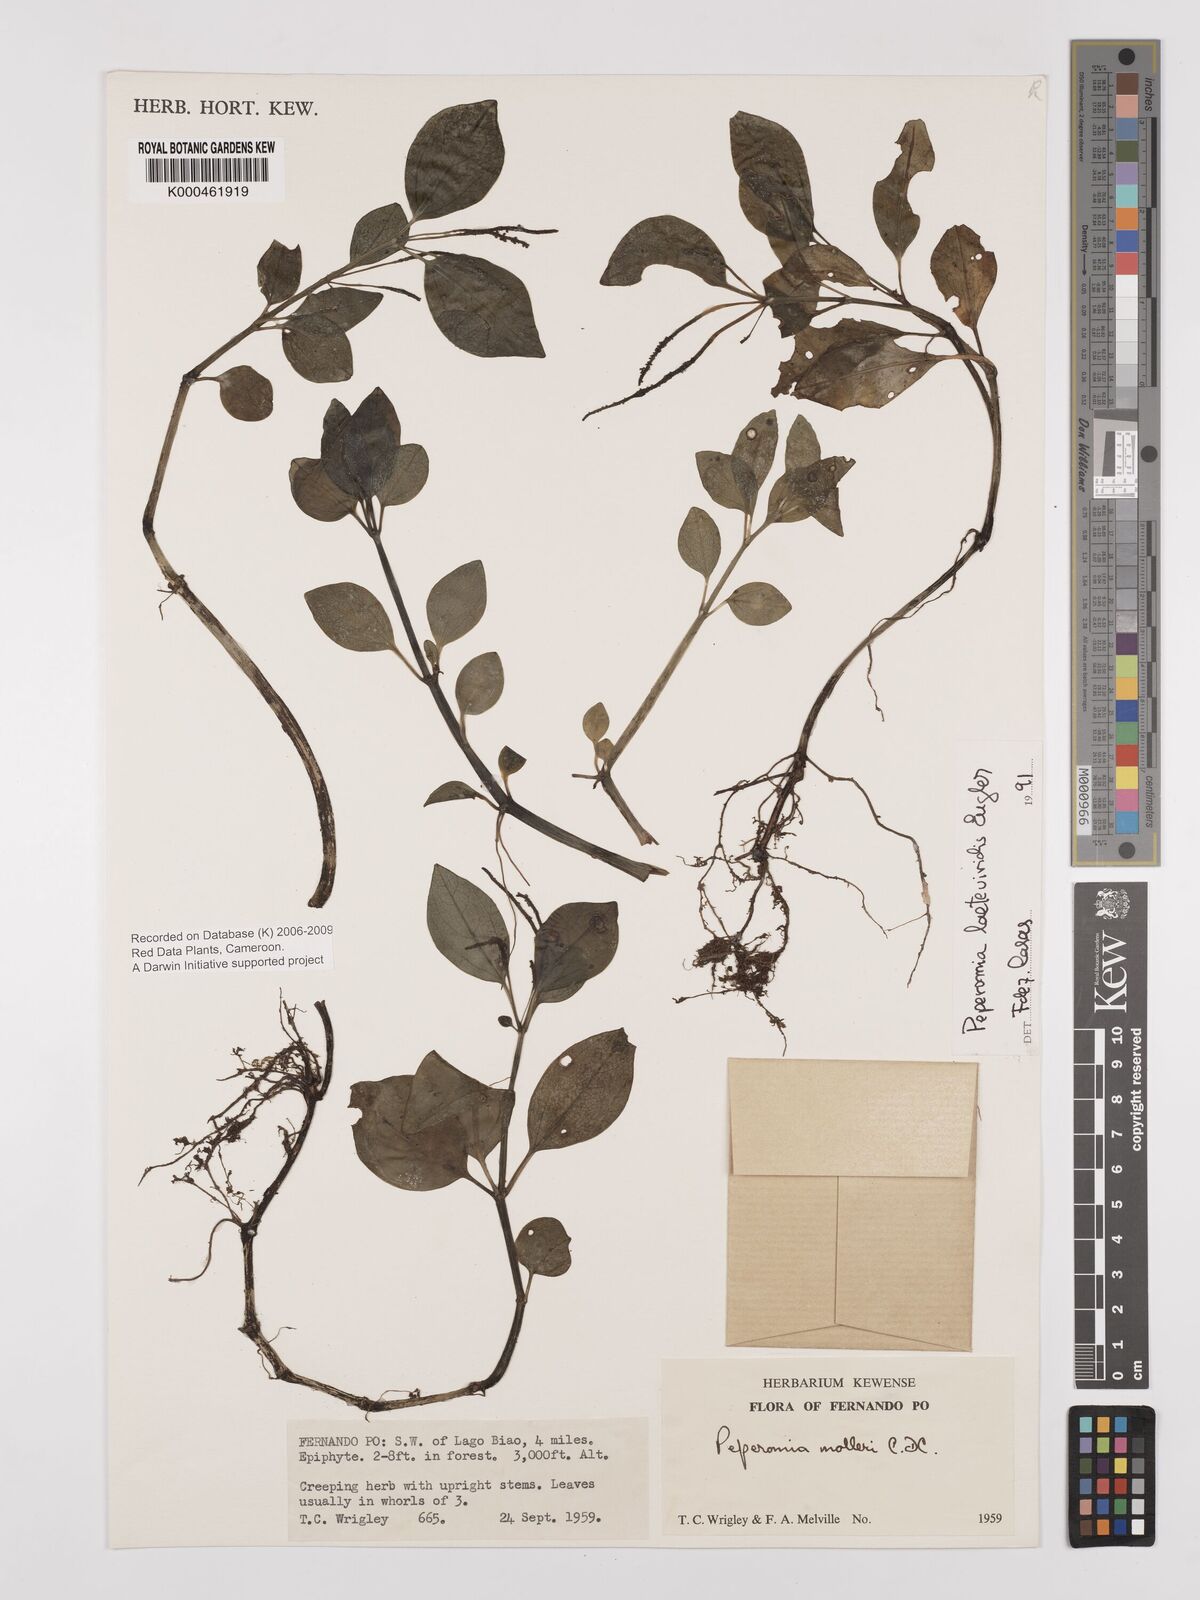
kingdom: Plantae
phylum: Tracheophyta
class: Magnoliopsida
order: Piperales
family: Piperaceae
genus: Peperomia
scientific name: Peperomia laeteviridis
